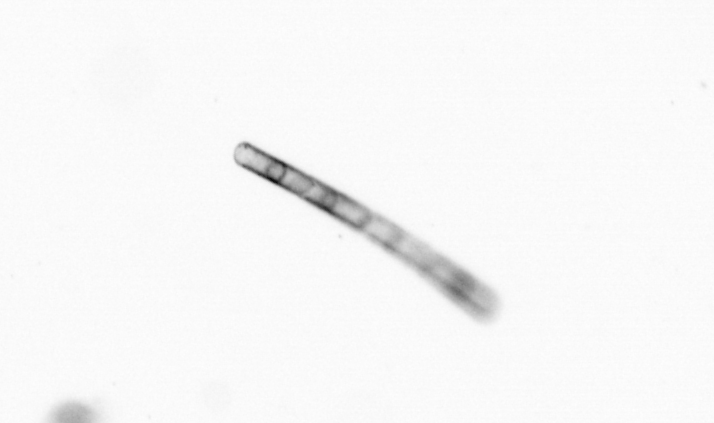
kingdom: Chromista
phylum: Ochrophyta
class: Bacillariophyceae
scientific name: Bacillariophyceae
